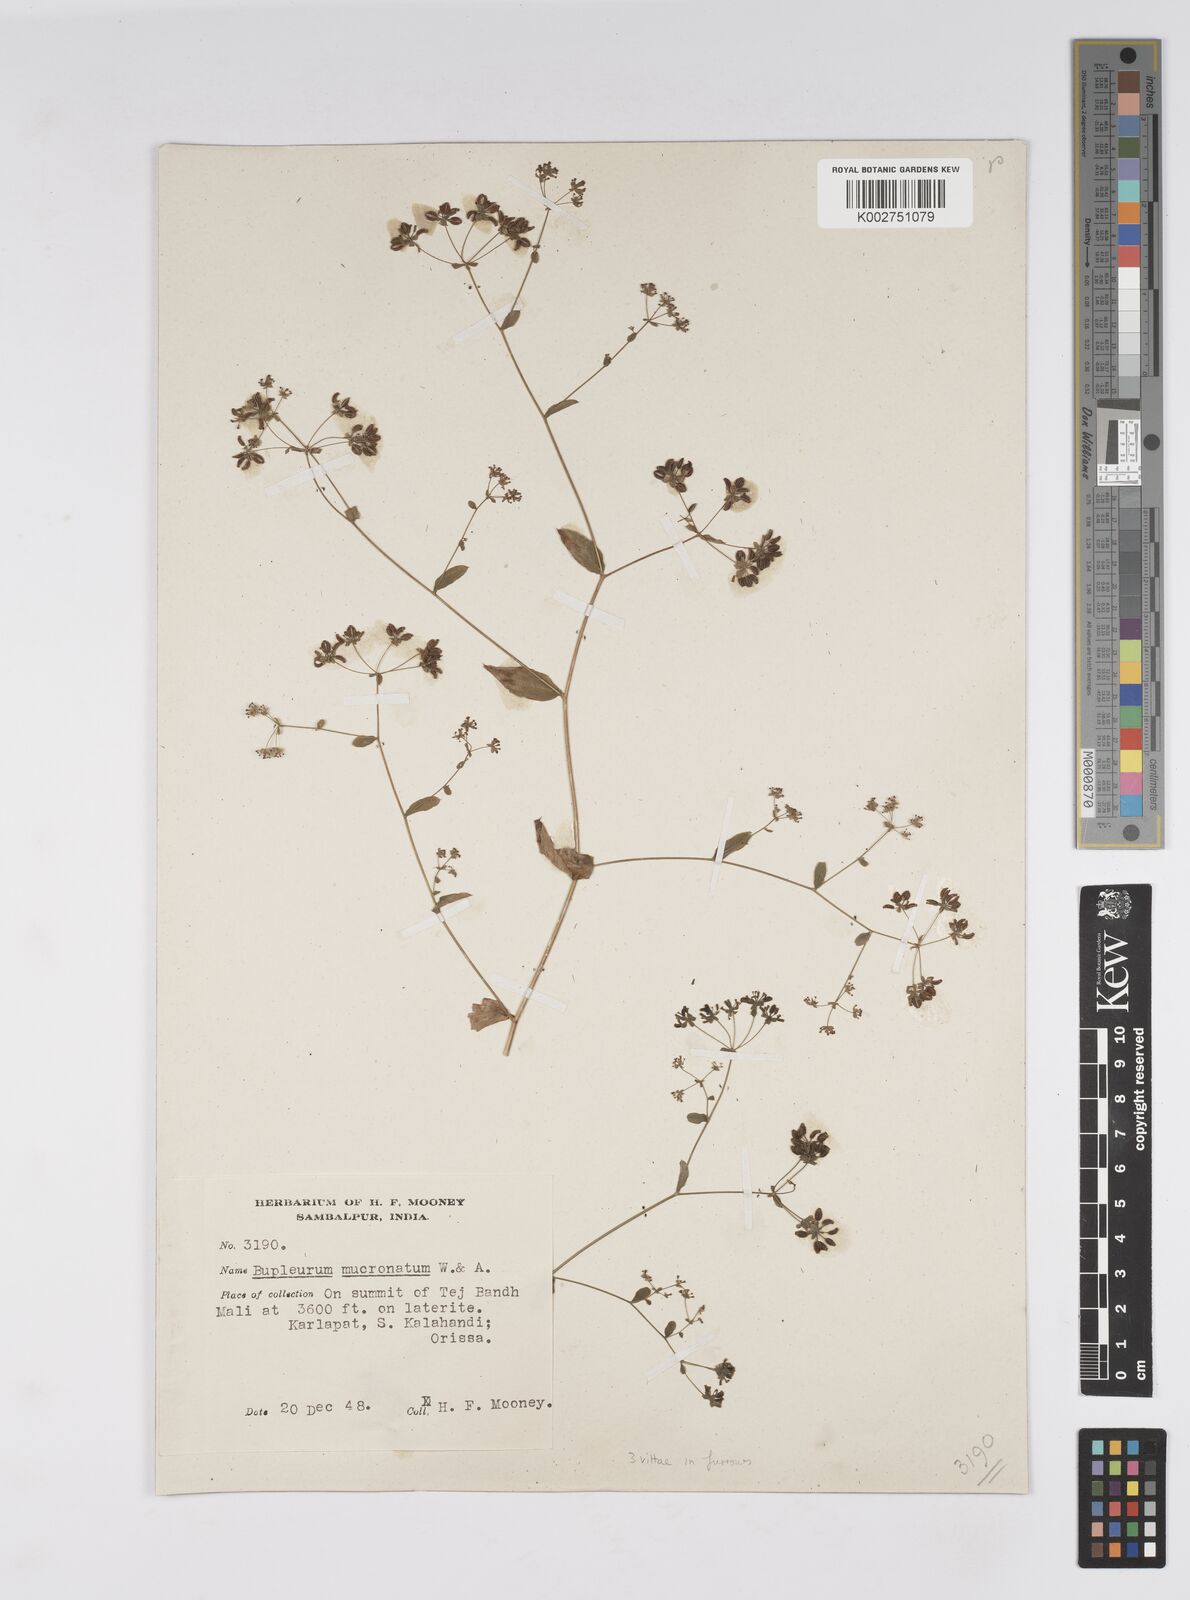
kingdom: Plantae
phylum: Tracheophyta
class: Magnoliopsida
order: Apiales
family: Apiaceae
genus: Bupleurum
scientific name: Bupleurum ramosissimum
